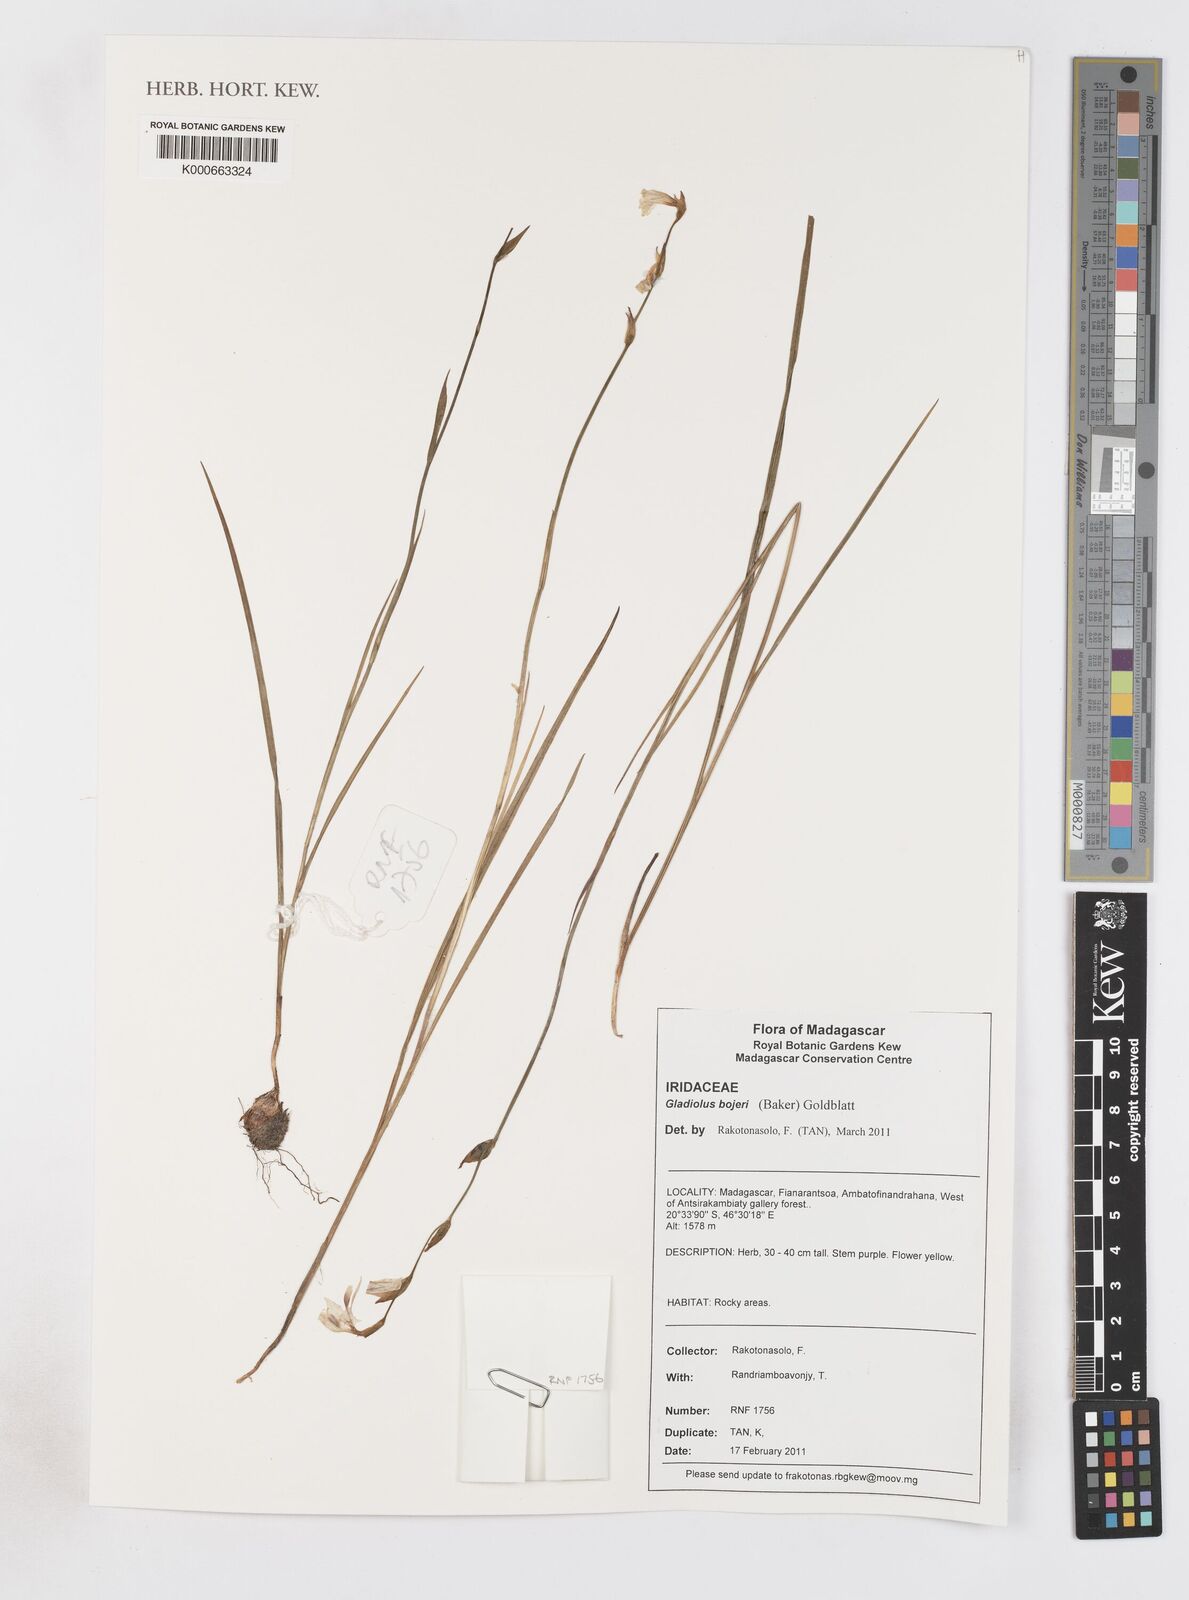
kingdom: Plantae
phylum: Tracheophyta
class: Liliopsida
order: Asparagales
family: Iridaceae
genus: Gladiolus
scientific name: Gladiolus bojeri
